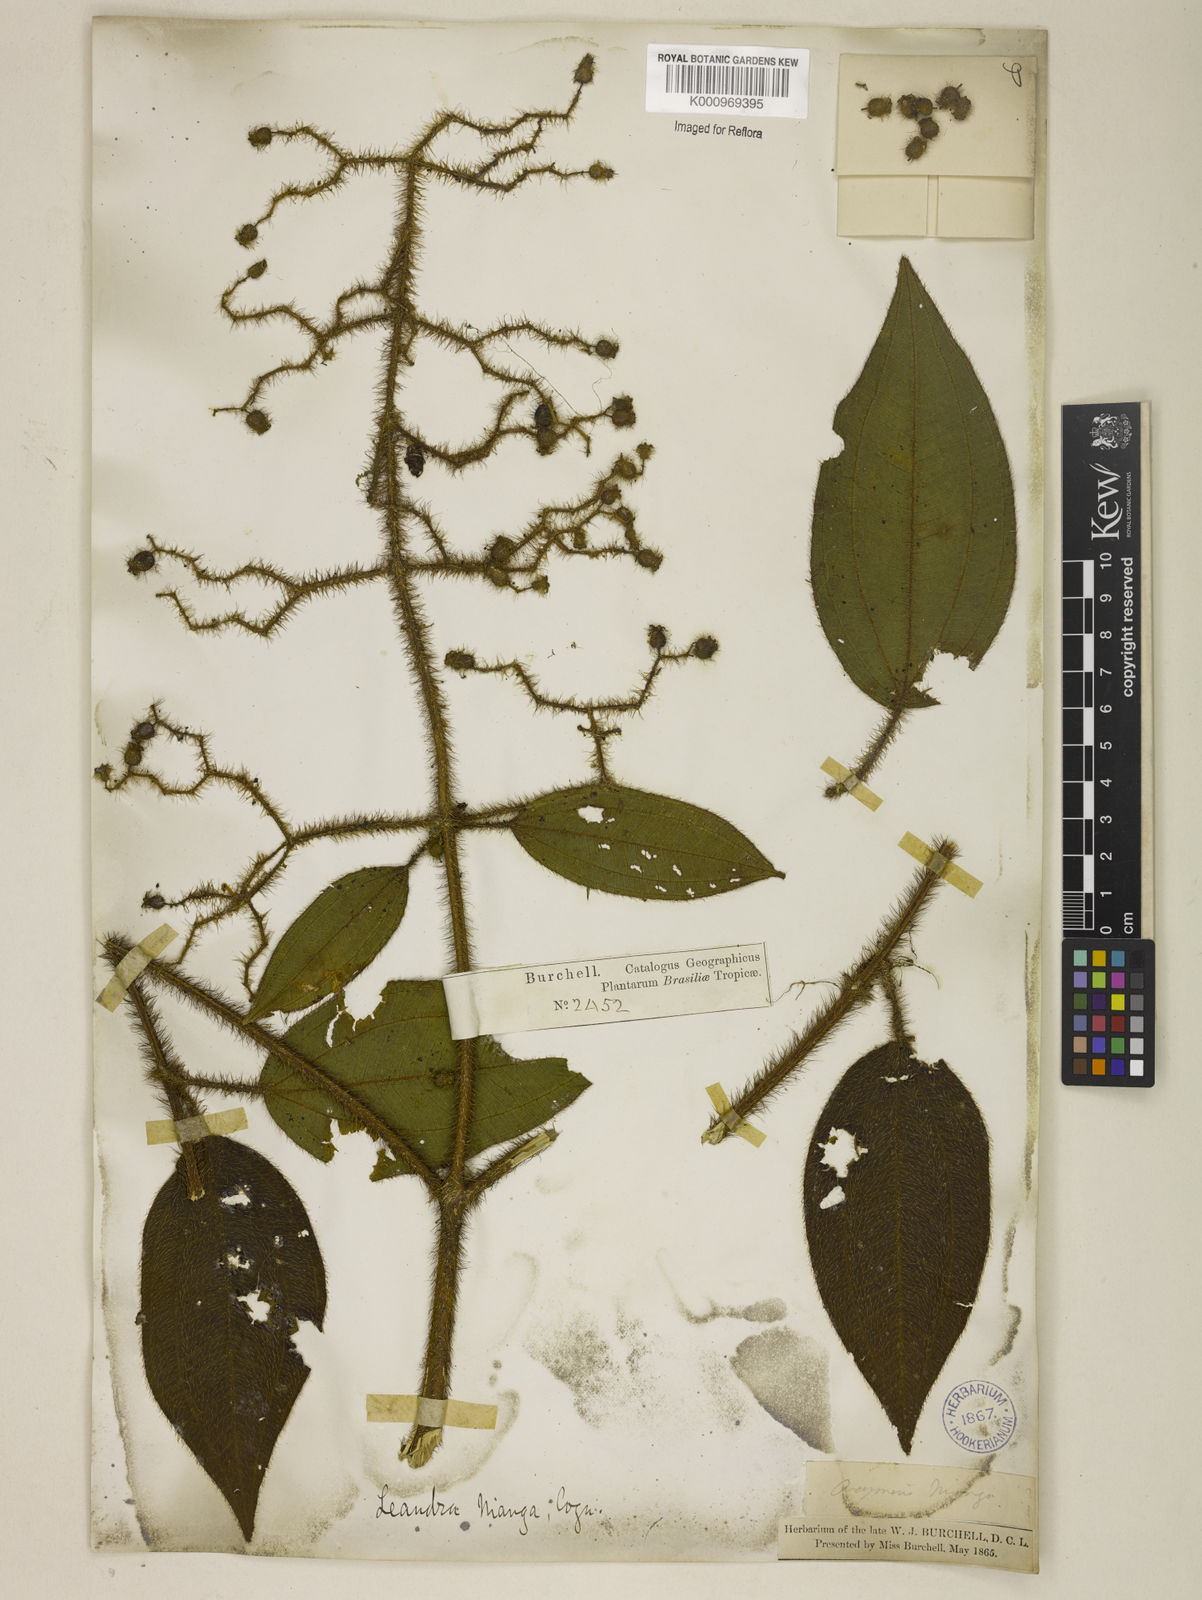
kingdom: Plantae
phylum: Tracheophyta
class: Magnoliopsida
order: Myrtales
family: Melastomataceae
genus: Miconia
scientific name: Miconia nianga
